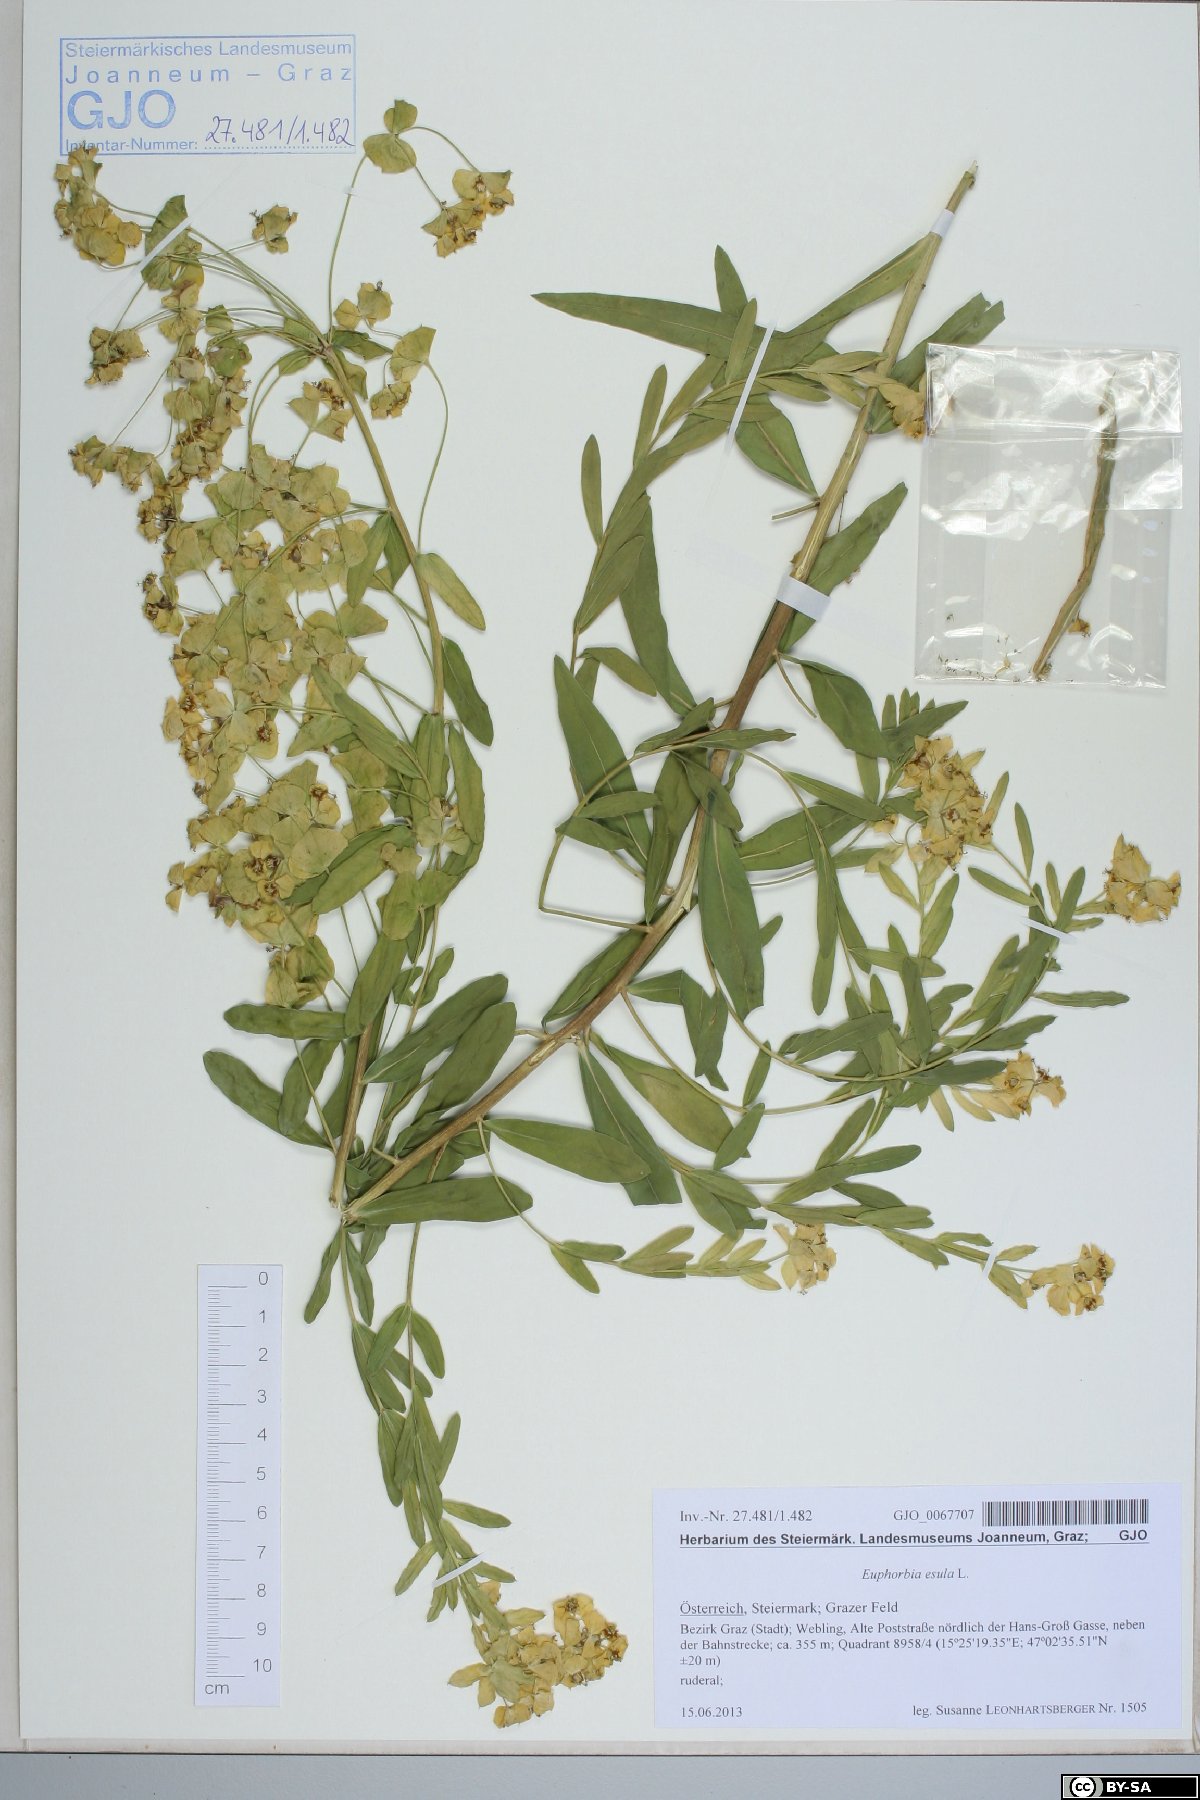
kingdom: Plantae
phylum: Tracheophyta
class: Magnoliopsida
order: Malpighiales
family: Euphorbiaceae
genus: Euphorbia
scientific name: Euphorbia esula
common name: Leafy spurge
